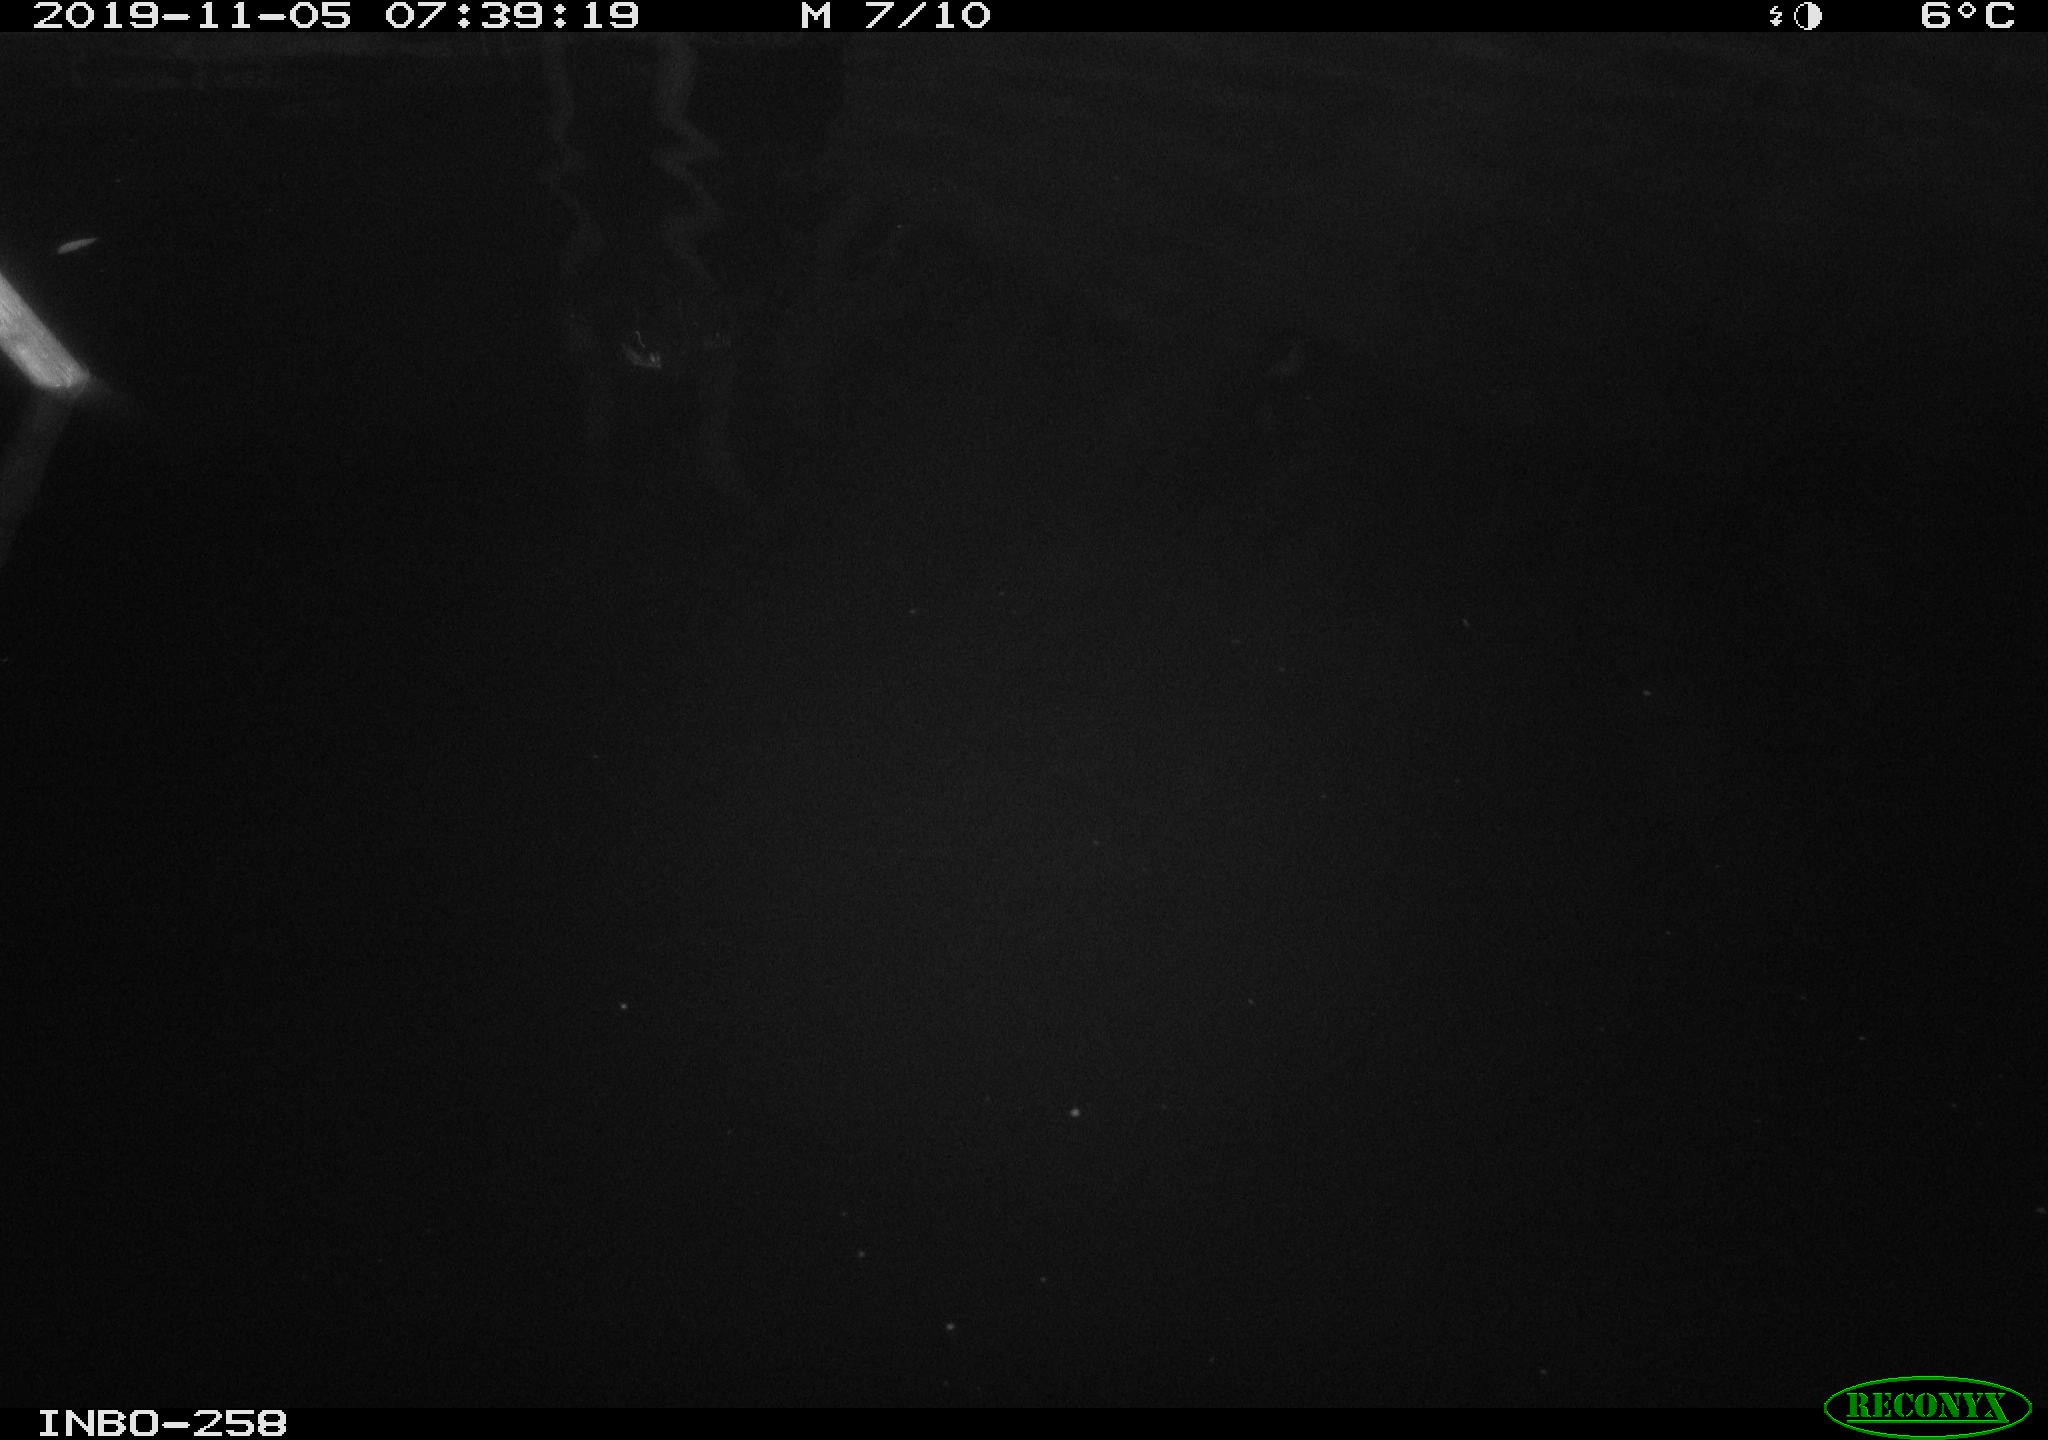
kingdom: Animalia
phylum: Chordata
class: Aves
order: Anseriformes
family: Anatidae
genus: Anas
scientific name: Anas platyrhynchos
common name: Mallard
